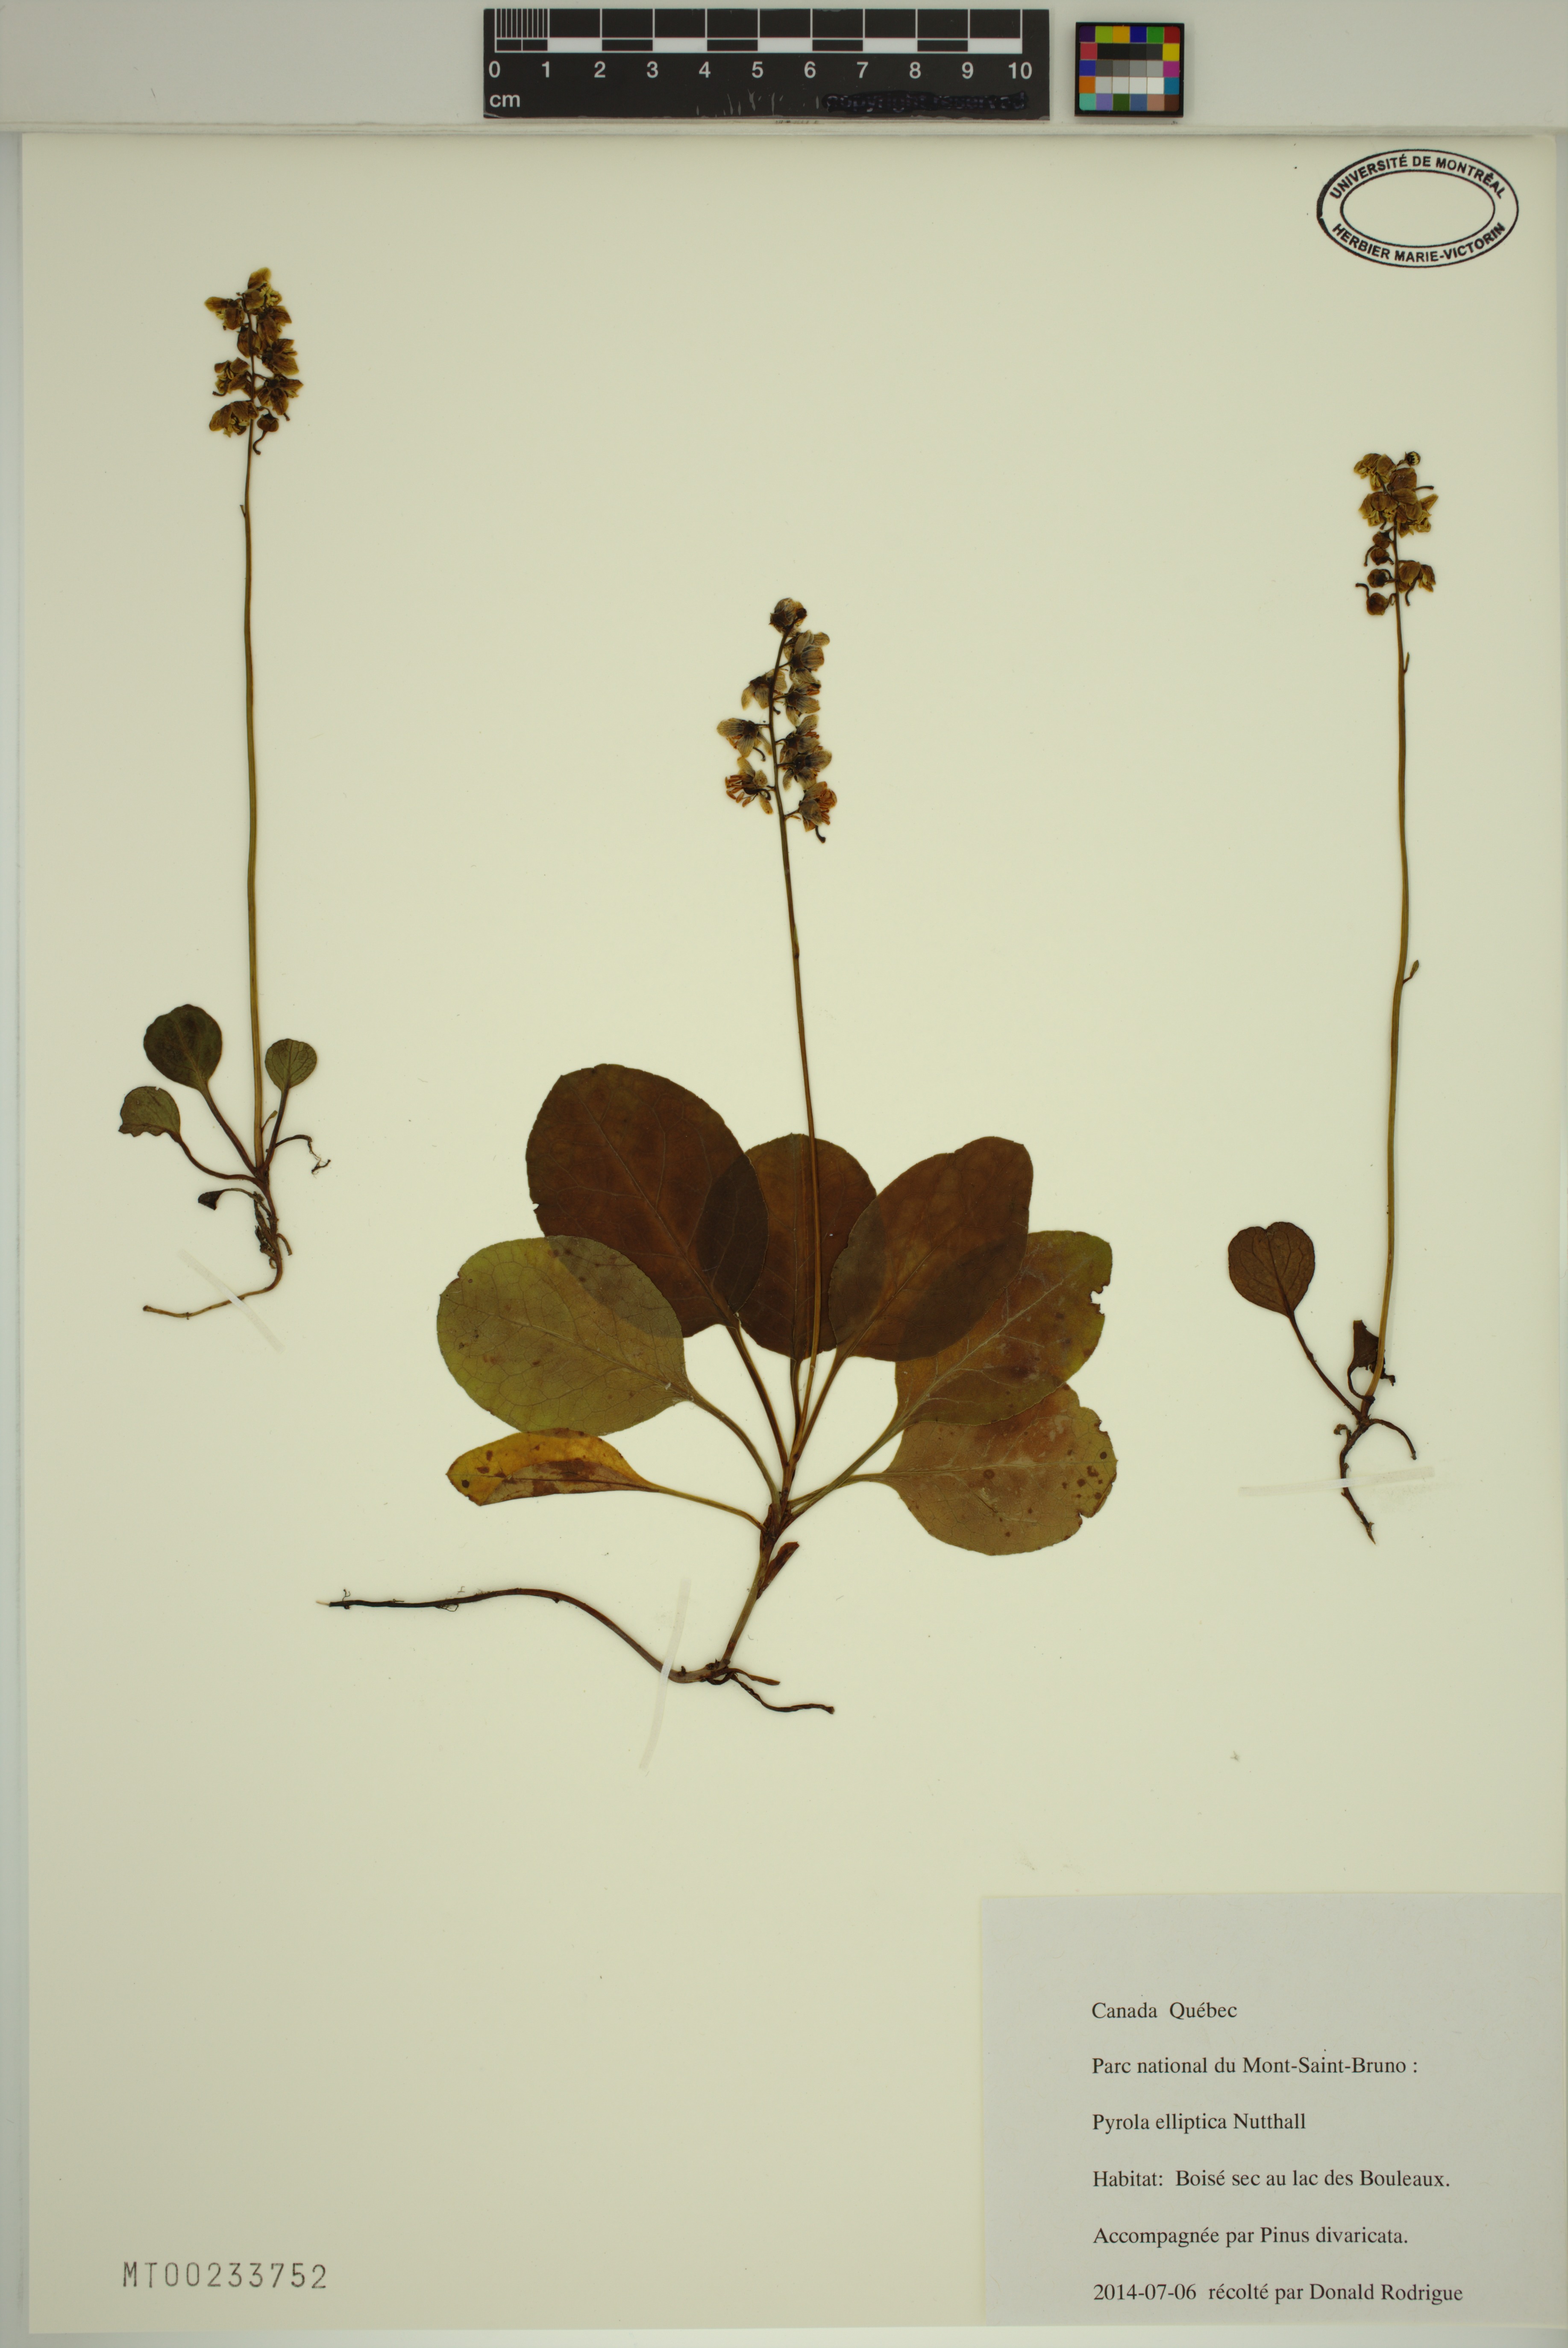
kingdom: Plantae
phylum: Tracheophyta
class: Magnoliopsida
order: Ericales
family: Ericaceae
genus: Pyrola
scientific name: Pyrola elliptica
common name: Shinleaf
